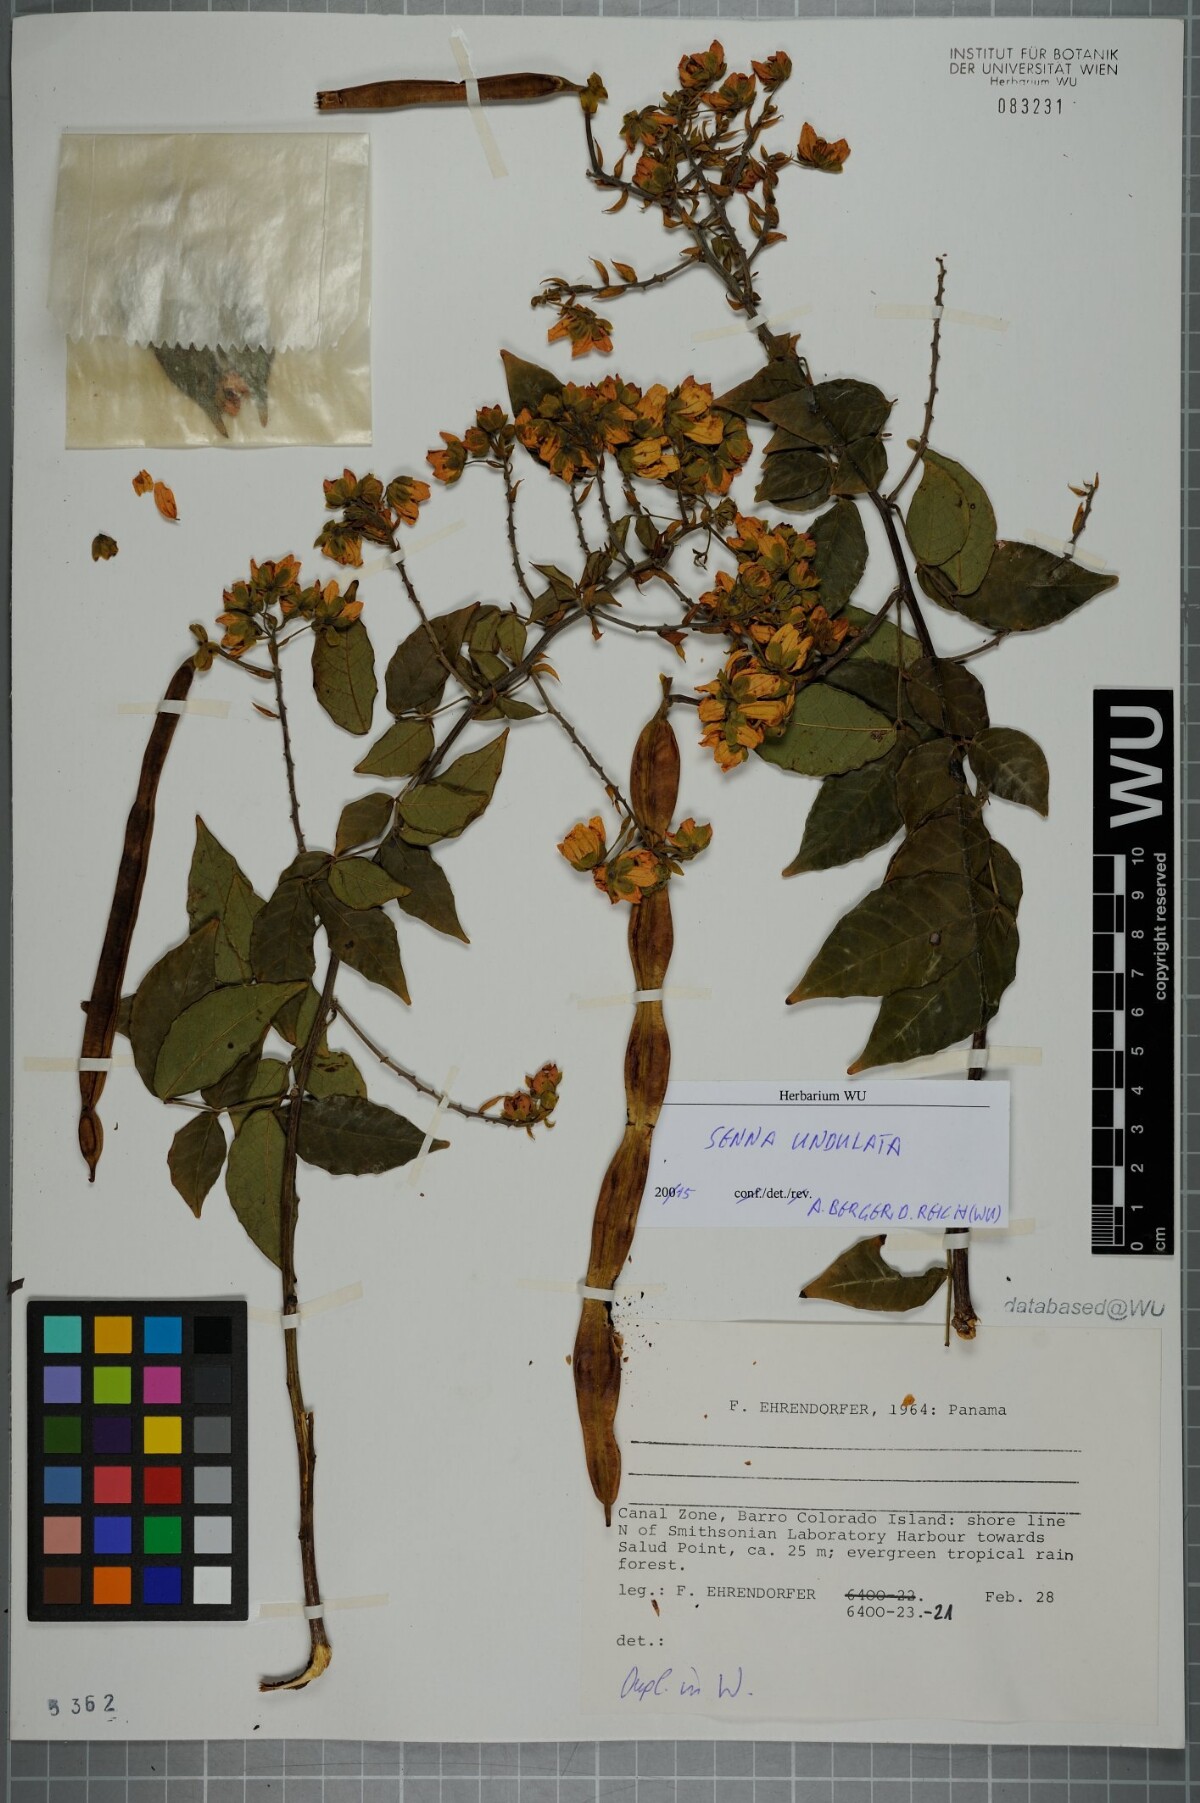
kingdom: Plantae
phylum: Tracheophyta
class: Magnoliopsida
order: Fabales
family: Fabaceae
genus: Senna
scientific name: Senna undulata
